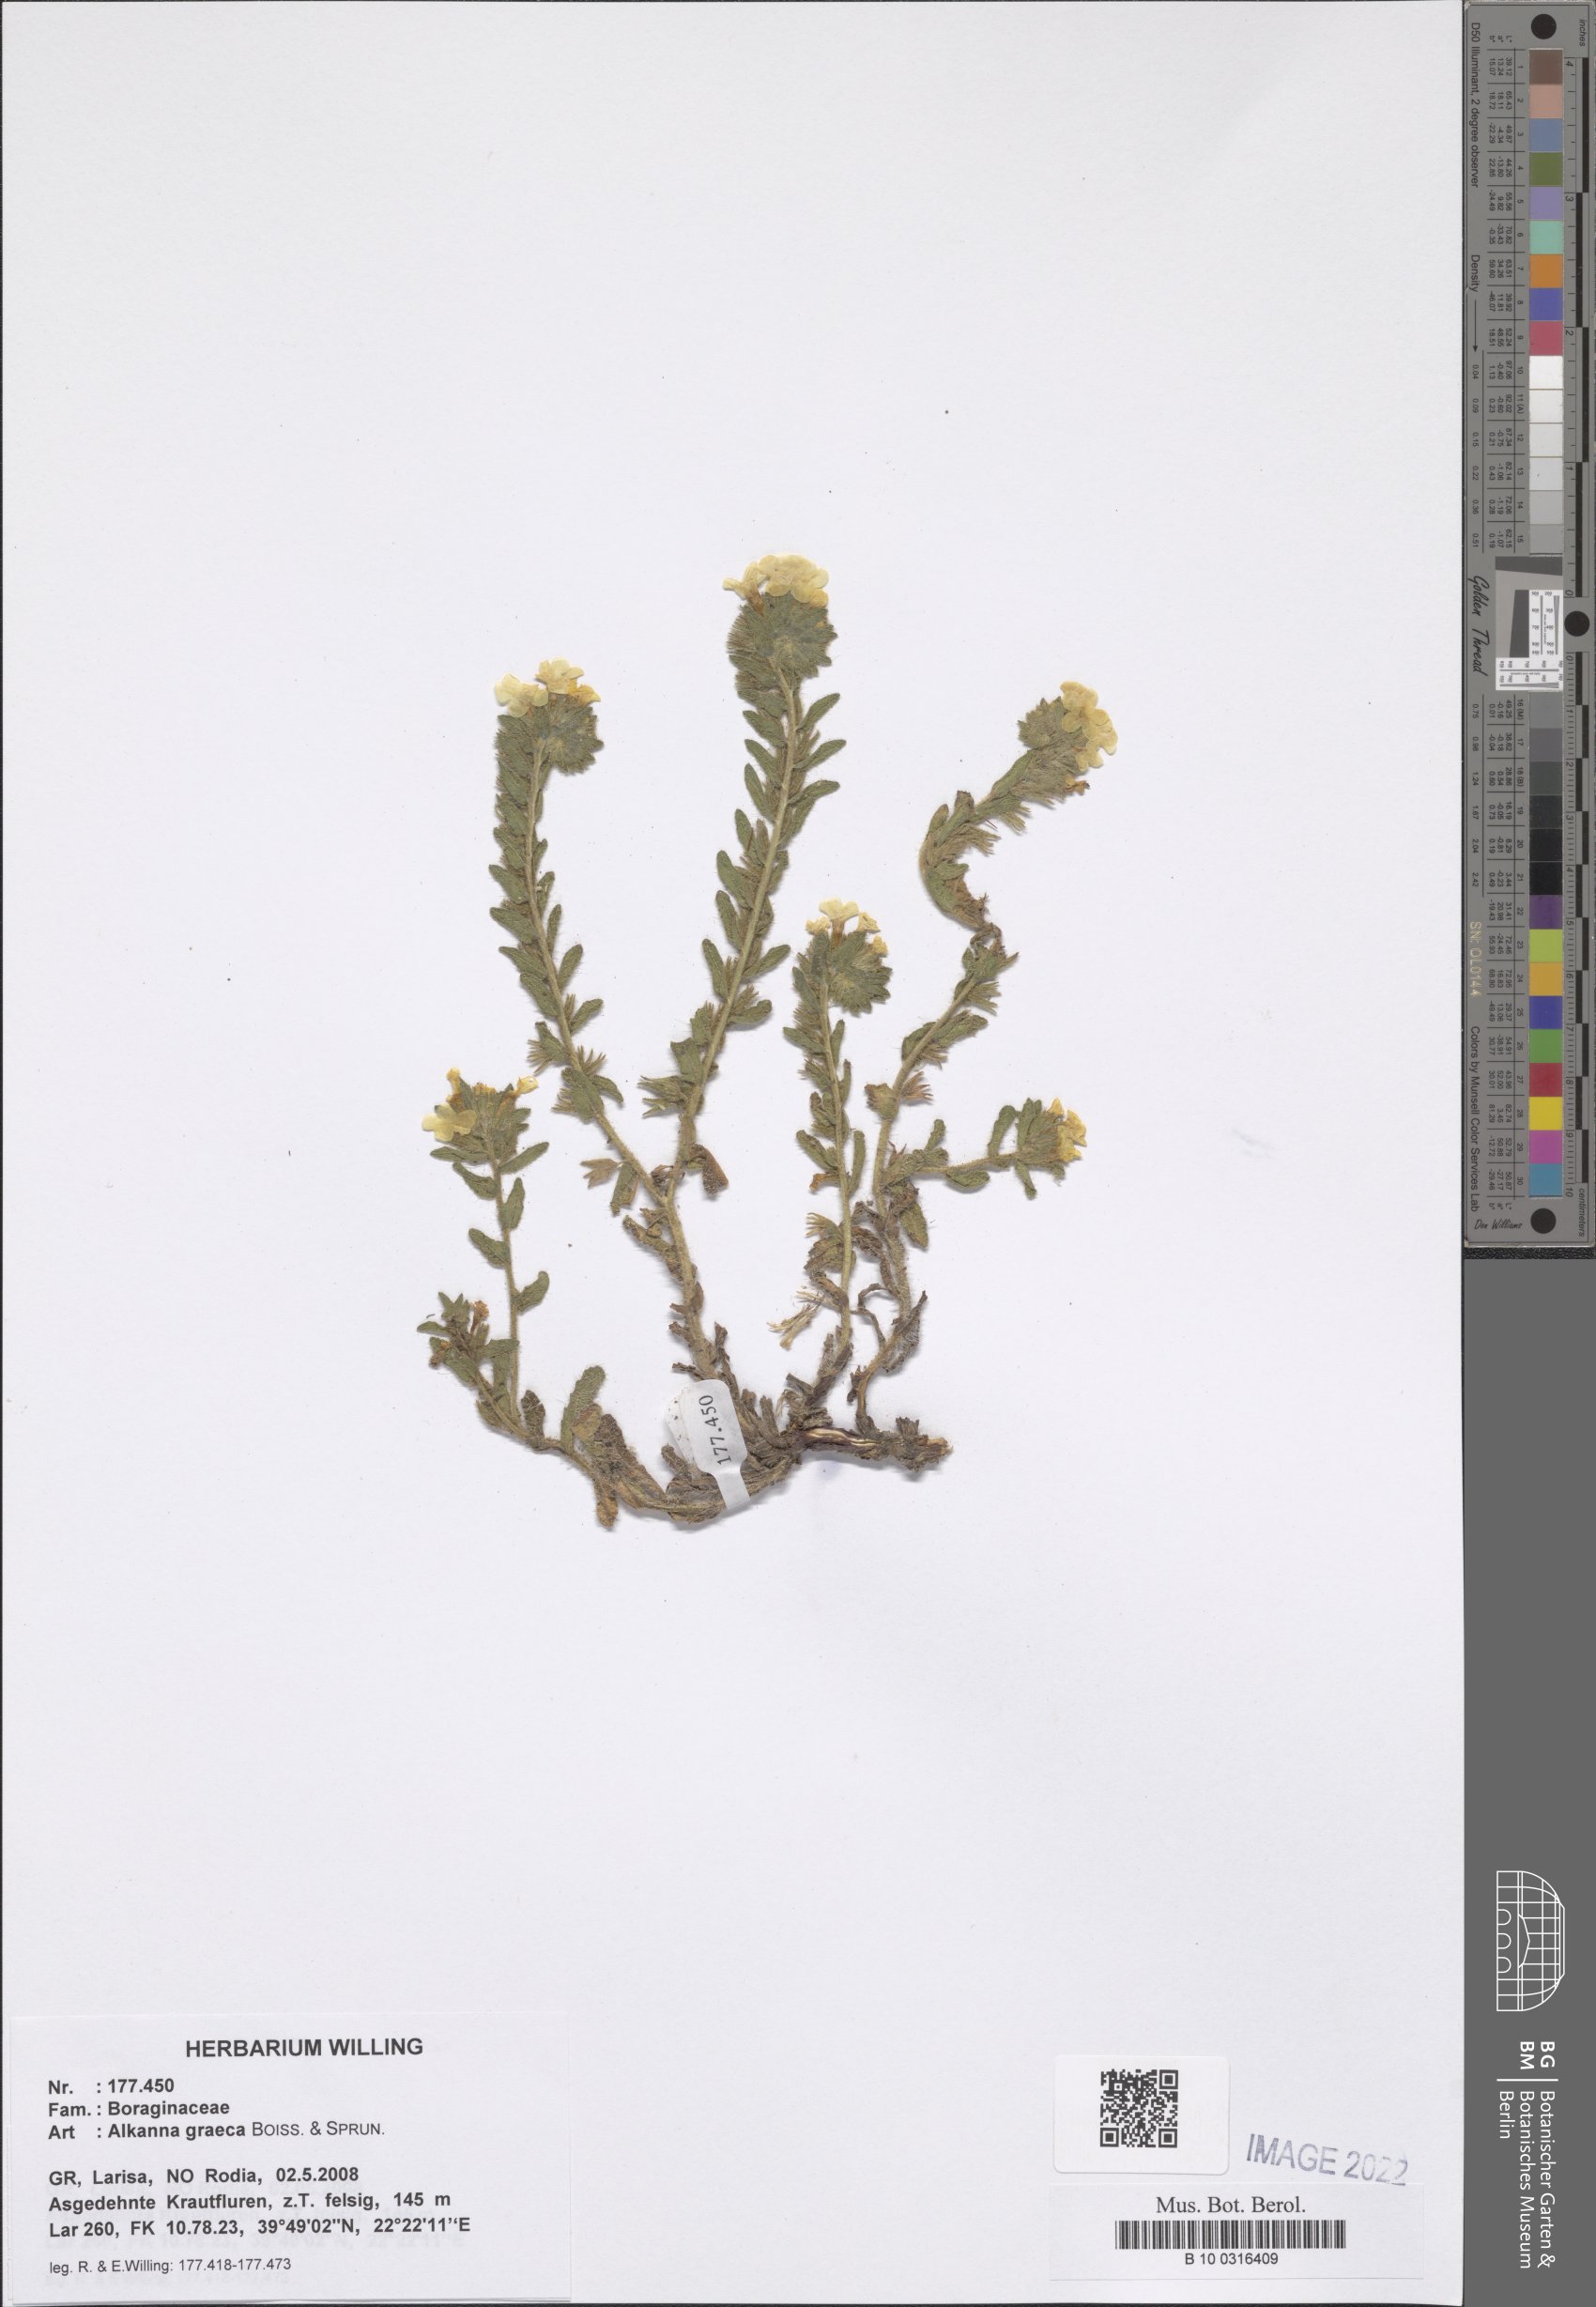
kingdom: Plantae
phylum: Tracheophyta
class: Magnoliopsida
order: Boraginales
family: Boraginaceae
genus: Alkanna
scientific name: Alkanna graeca
